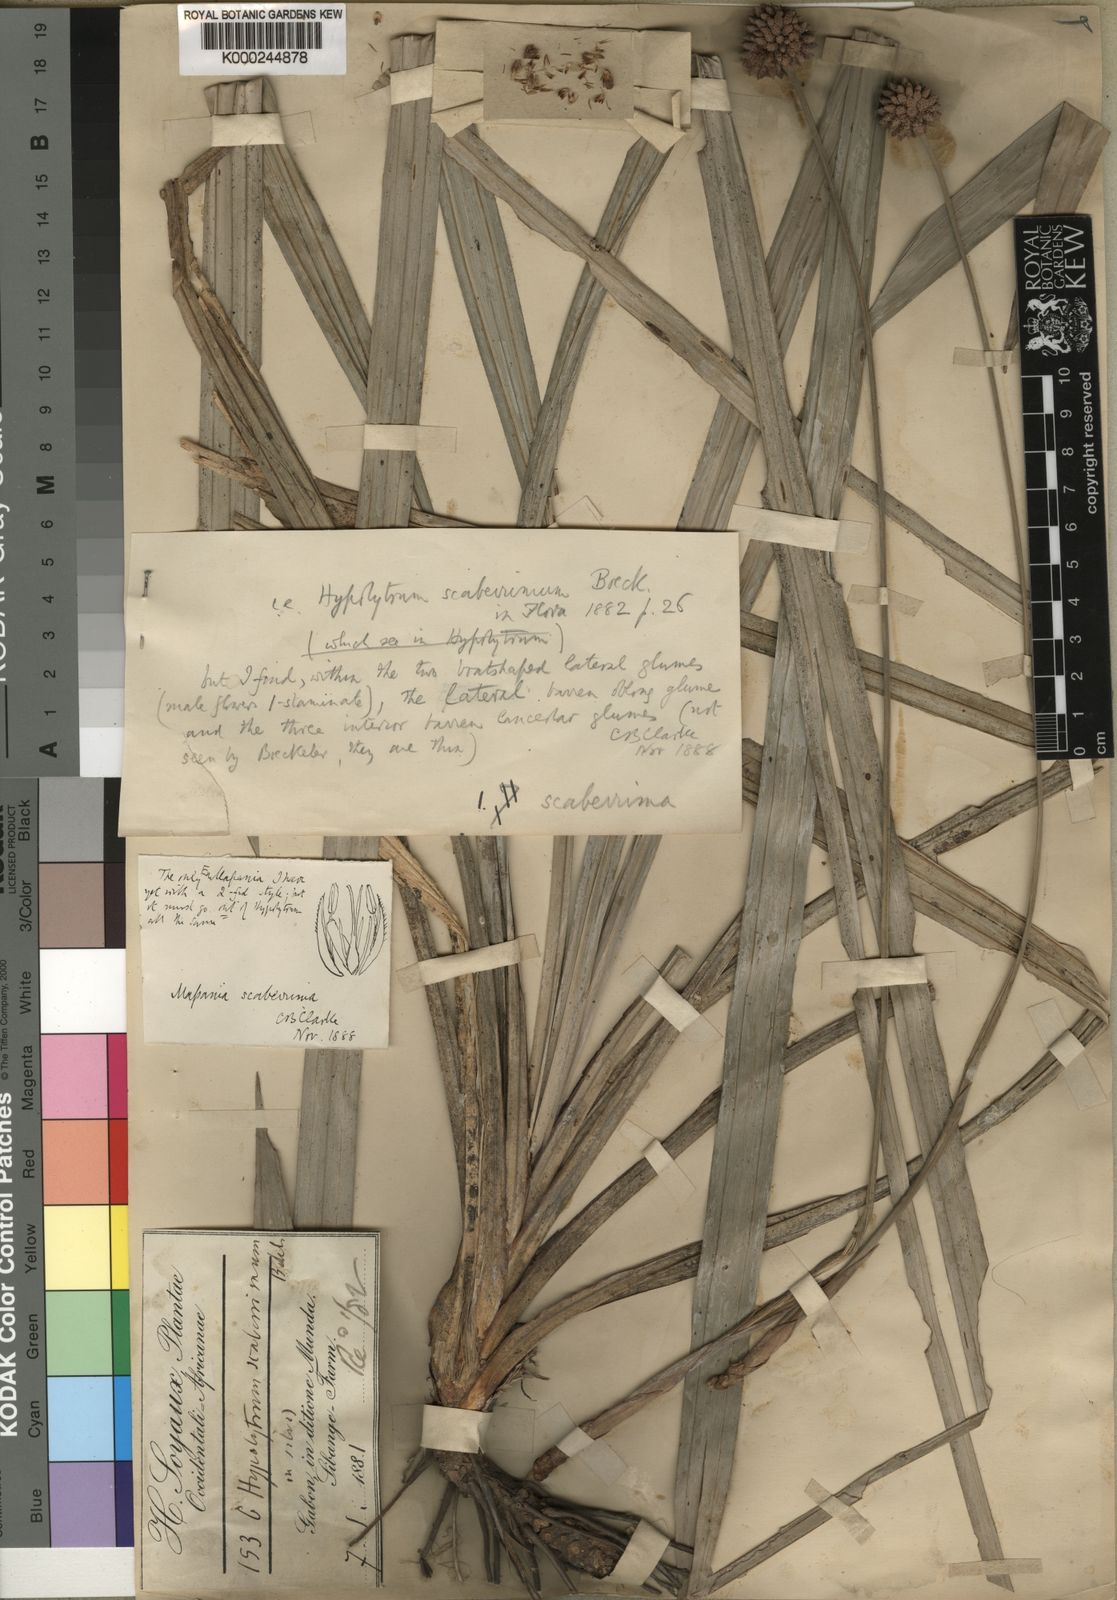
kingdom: Plantae
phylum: Tracheophyta
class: Liliopsida
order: Poales
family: Cyperaceae
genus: Hypolytrum
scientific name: Hypolytrum scaberrimum
